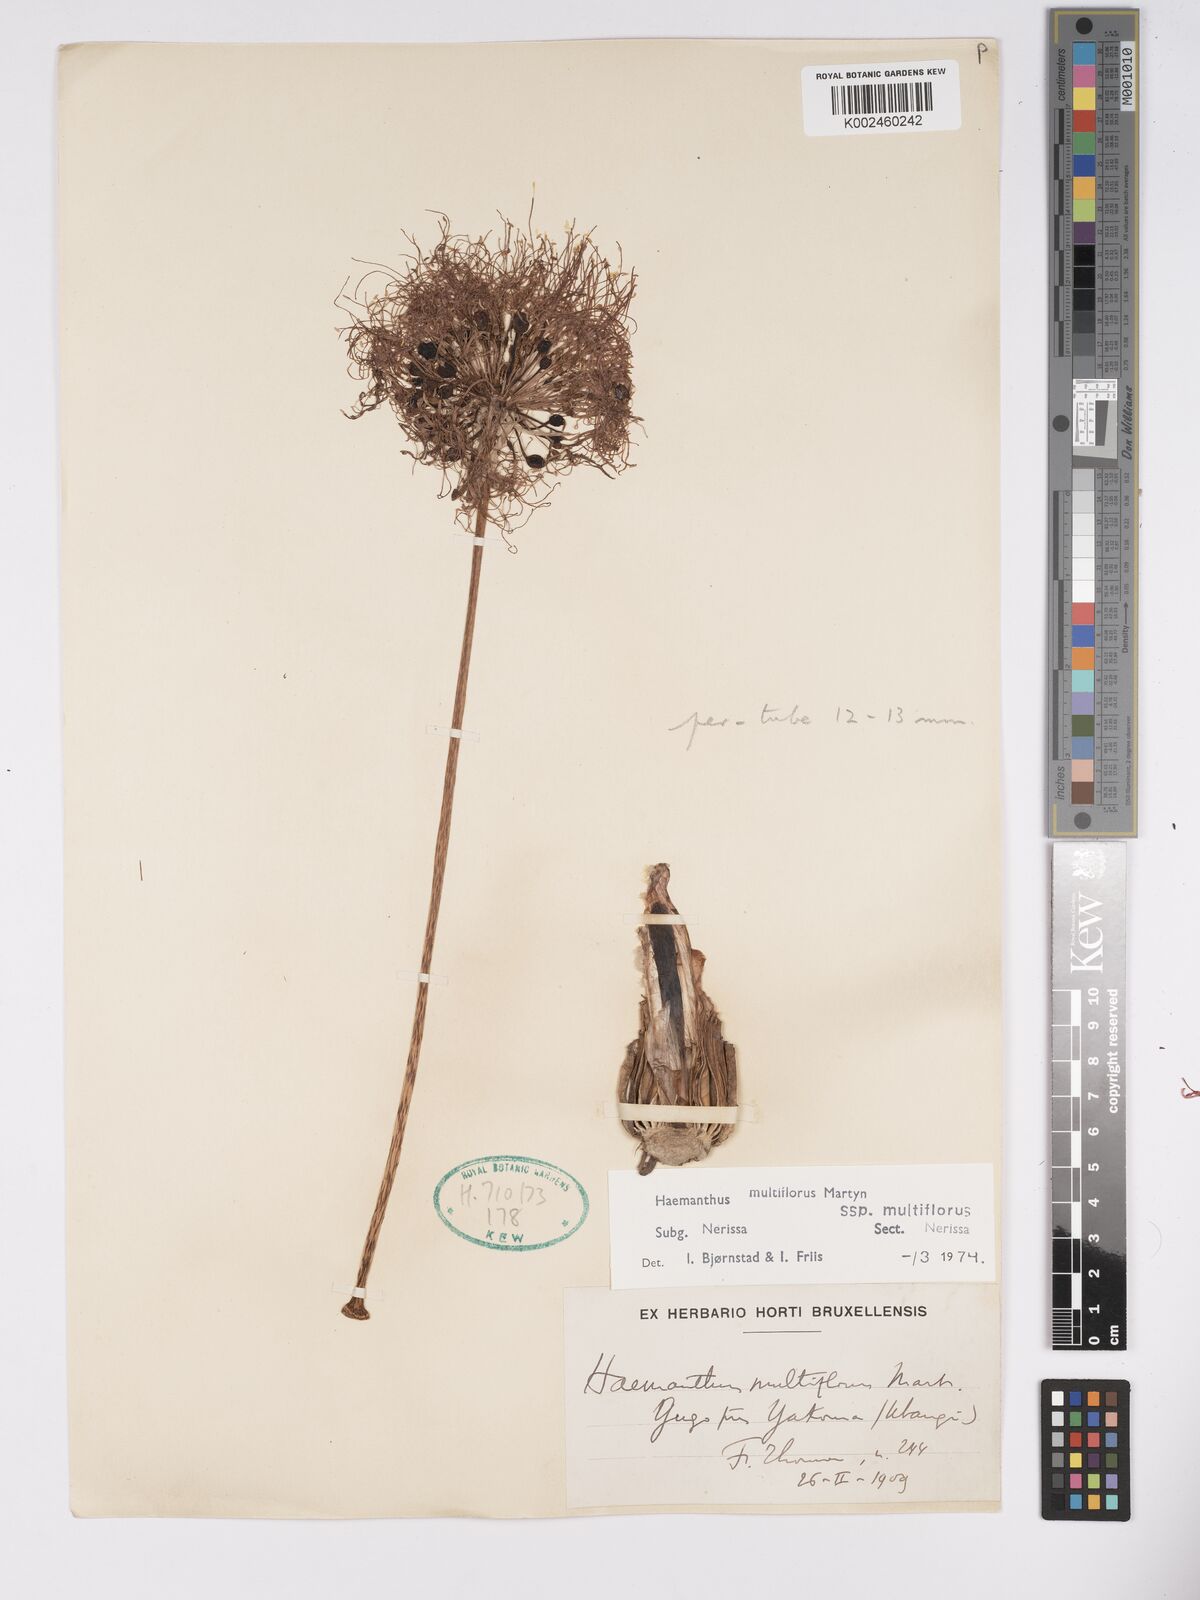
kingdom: Plantae
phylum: Tracheophyta
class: Liliopsida
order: Asparagales
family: Amaryllidaceae
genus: Scadoxus
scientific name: Scadoxus multiflorus
